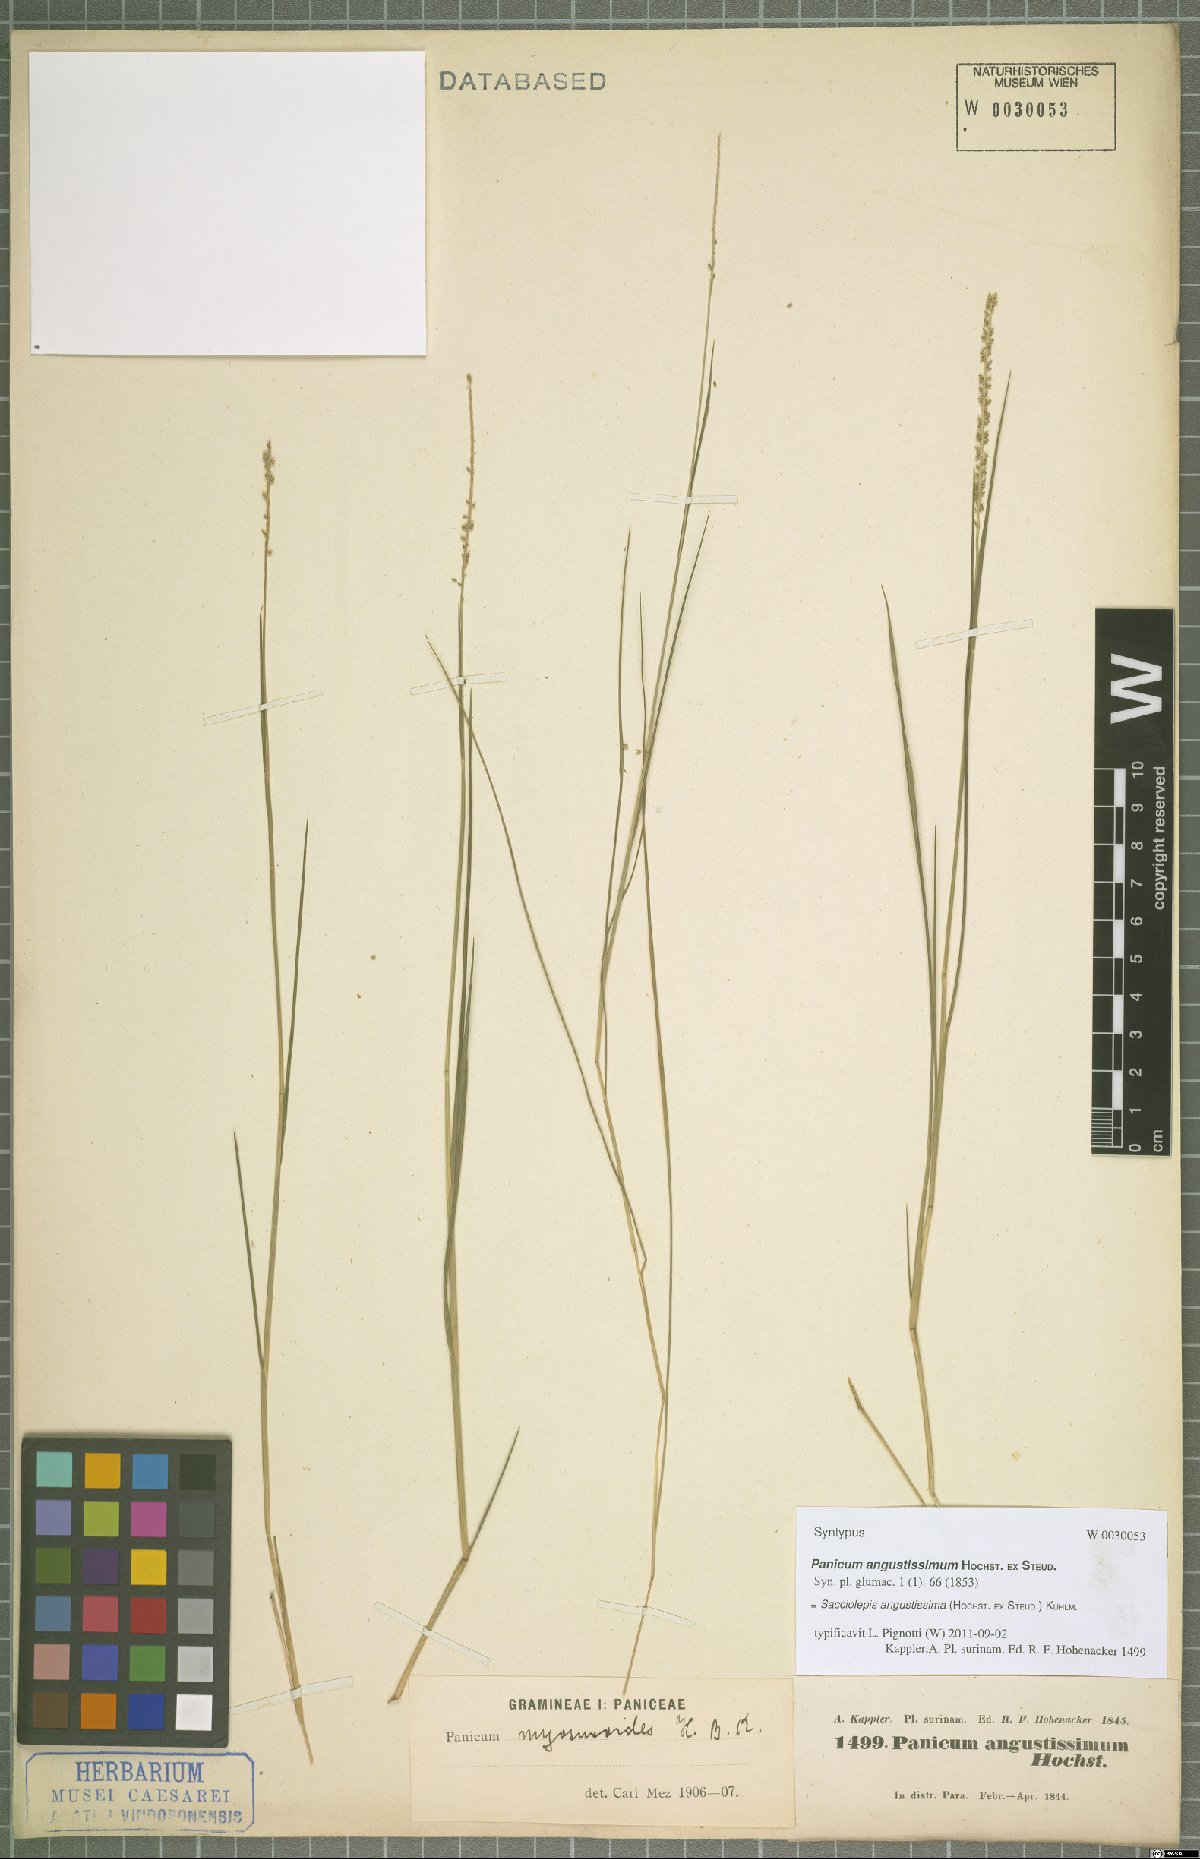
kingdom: Plantae
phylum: Tracheophyta
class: Liliopsida
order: Poales
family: Poaceae
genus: Sacciolepis
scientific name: Sacciolepis angustissima
